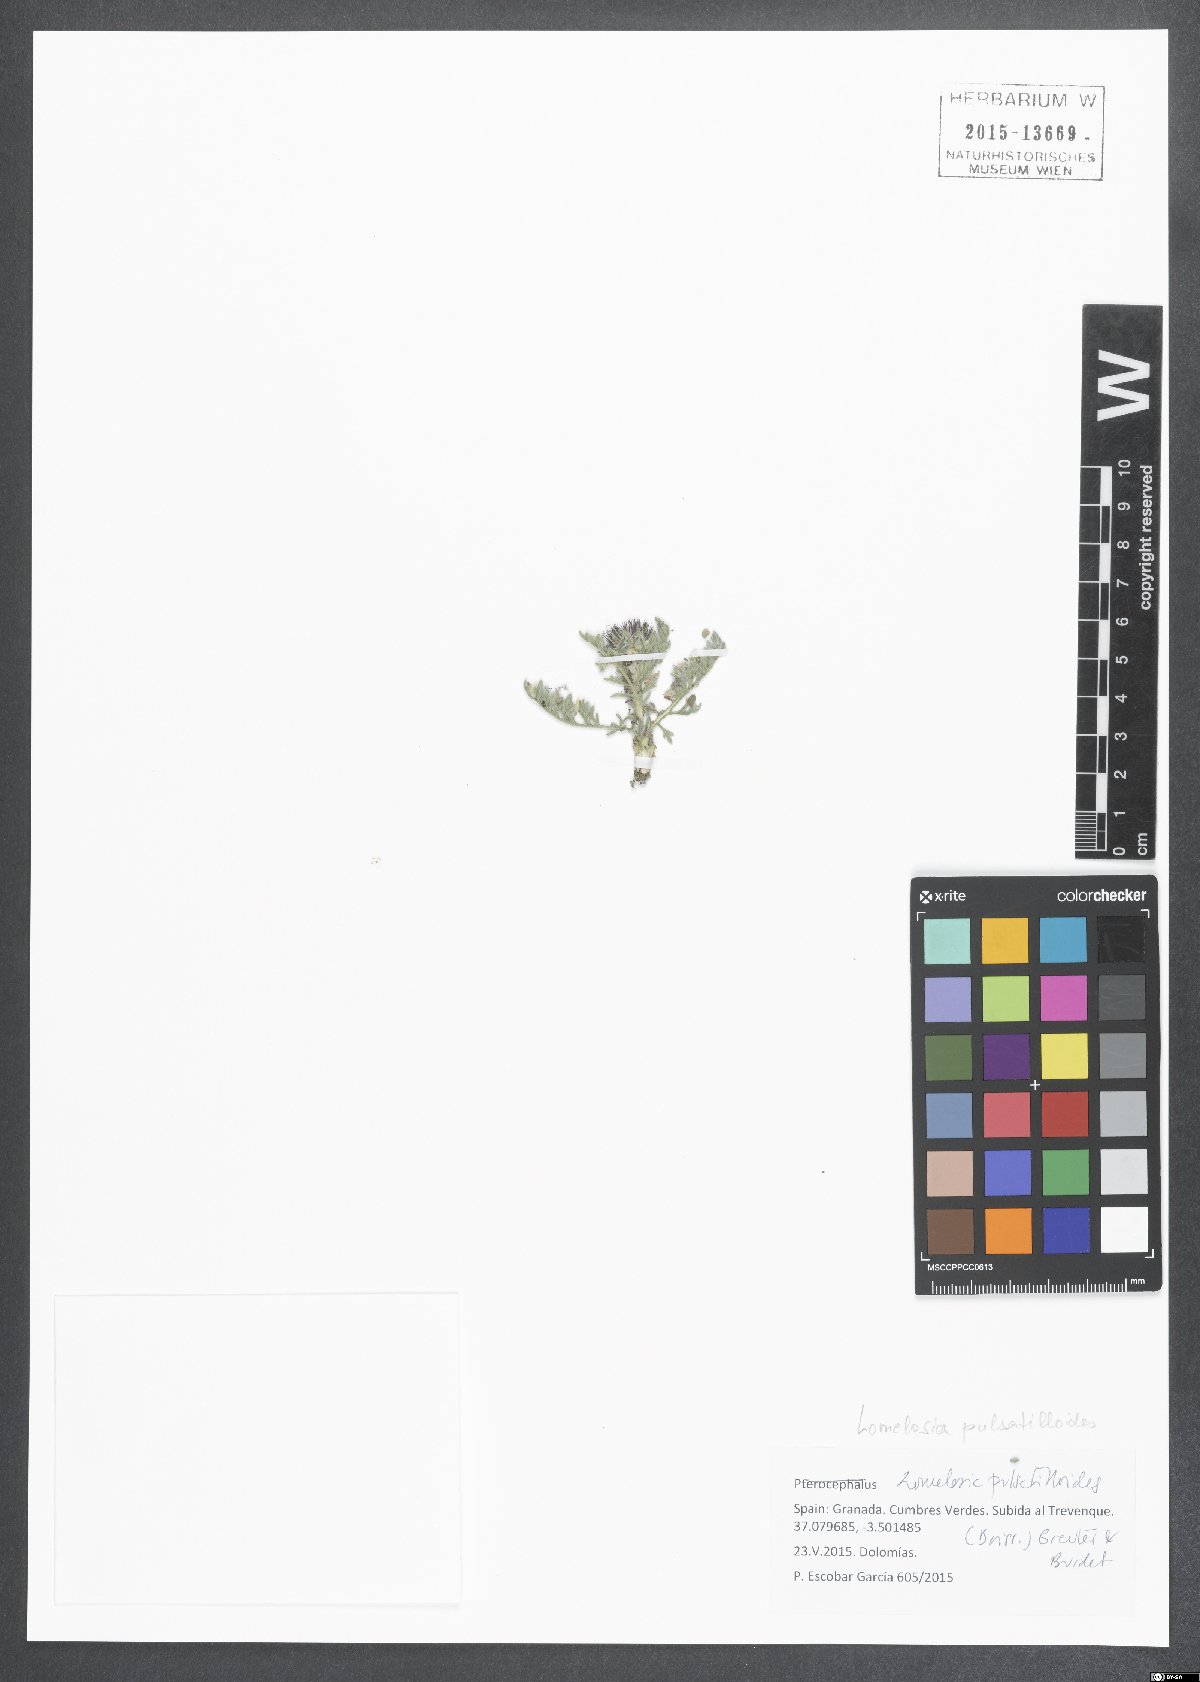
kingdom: Plantae
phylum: Tracheophyta
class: Magnoliopsida
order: Dipsacales
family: Caprifoliaceae
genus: Lomelosia
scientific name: Lomelosia pulsatilloides
